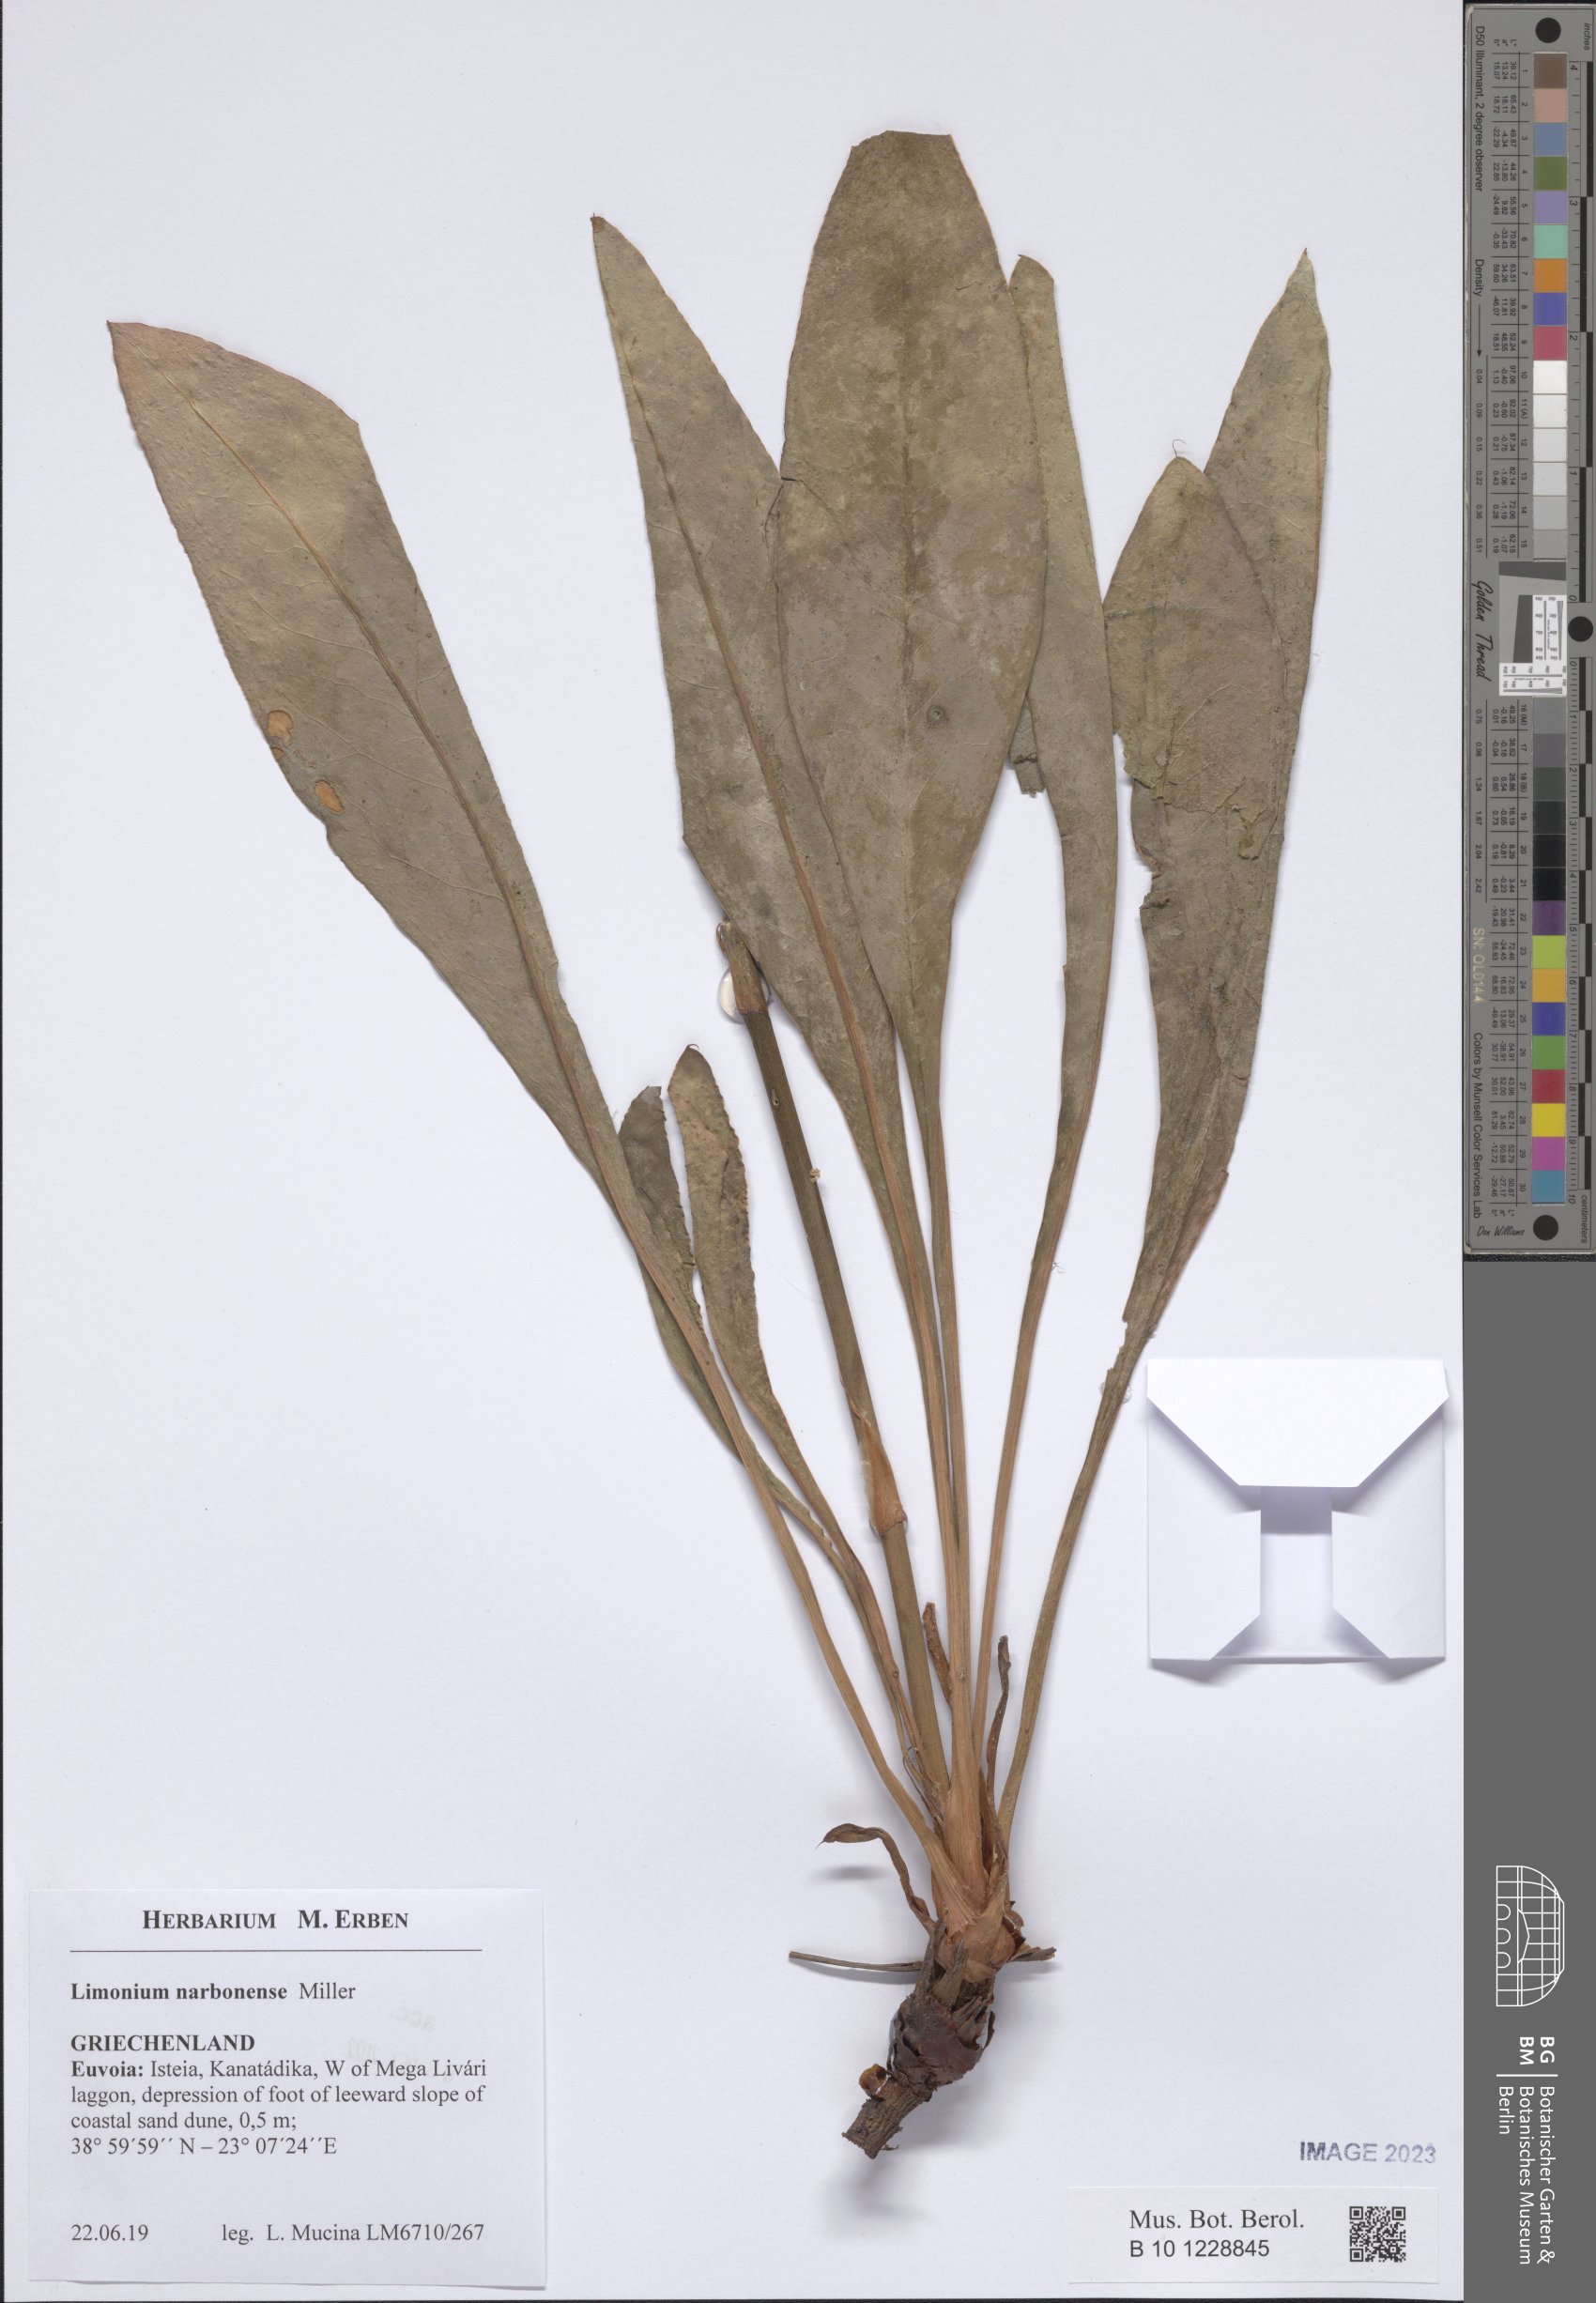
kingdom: Plantae
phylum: Tracheophyta
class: Magnoliopsida
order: Caryophyllales
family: Plumbaginaceae
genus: Limonium
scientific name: Limonium narbonense
